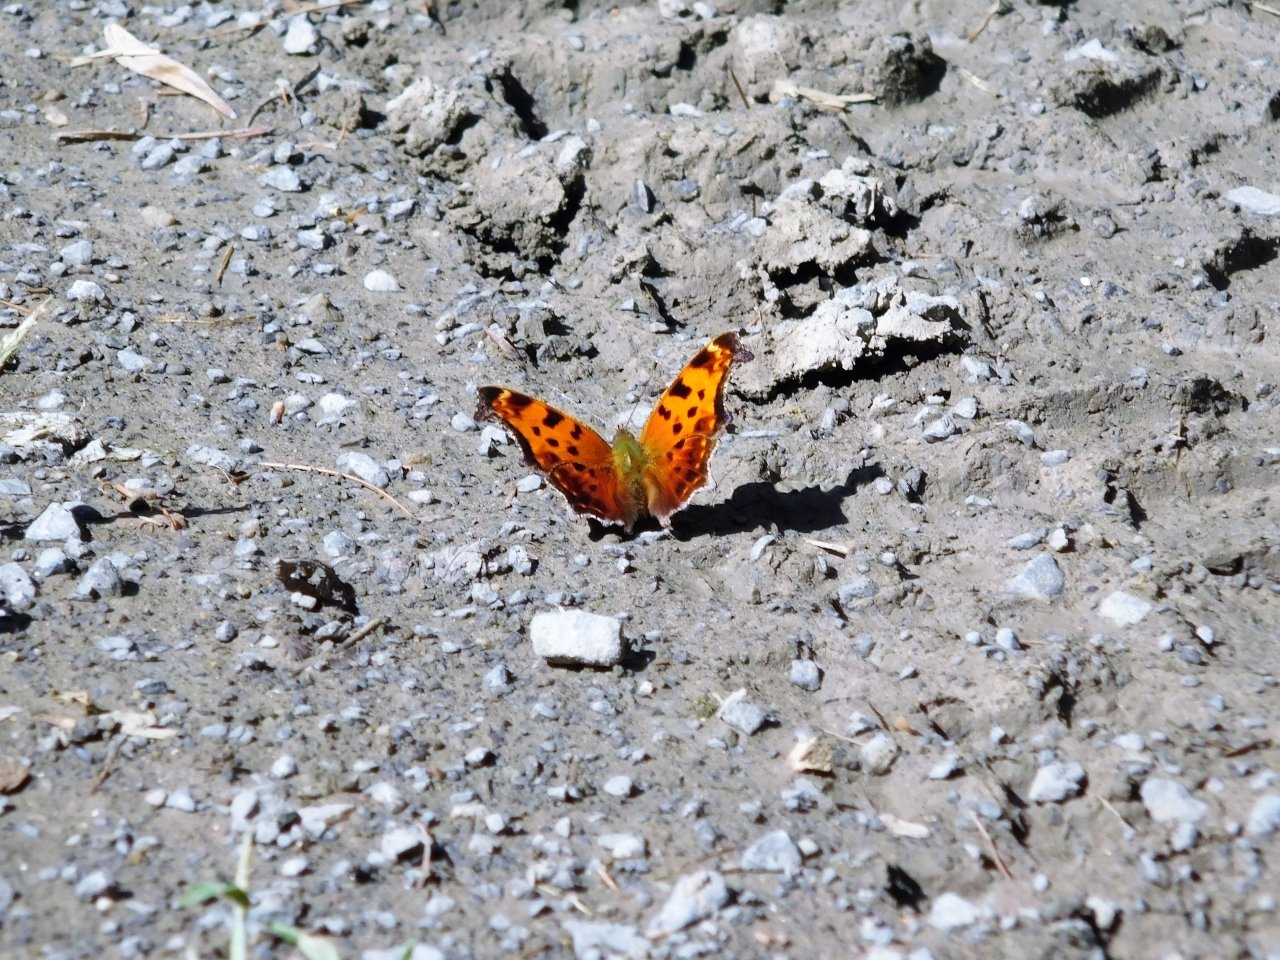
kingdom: Animalia
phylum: Arthropoda
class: Insecta
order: Lepidoptera
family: Nymphalidae
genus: Polygonia
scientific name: Polygonia
